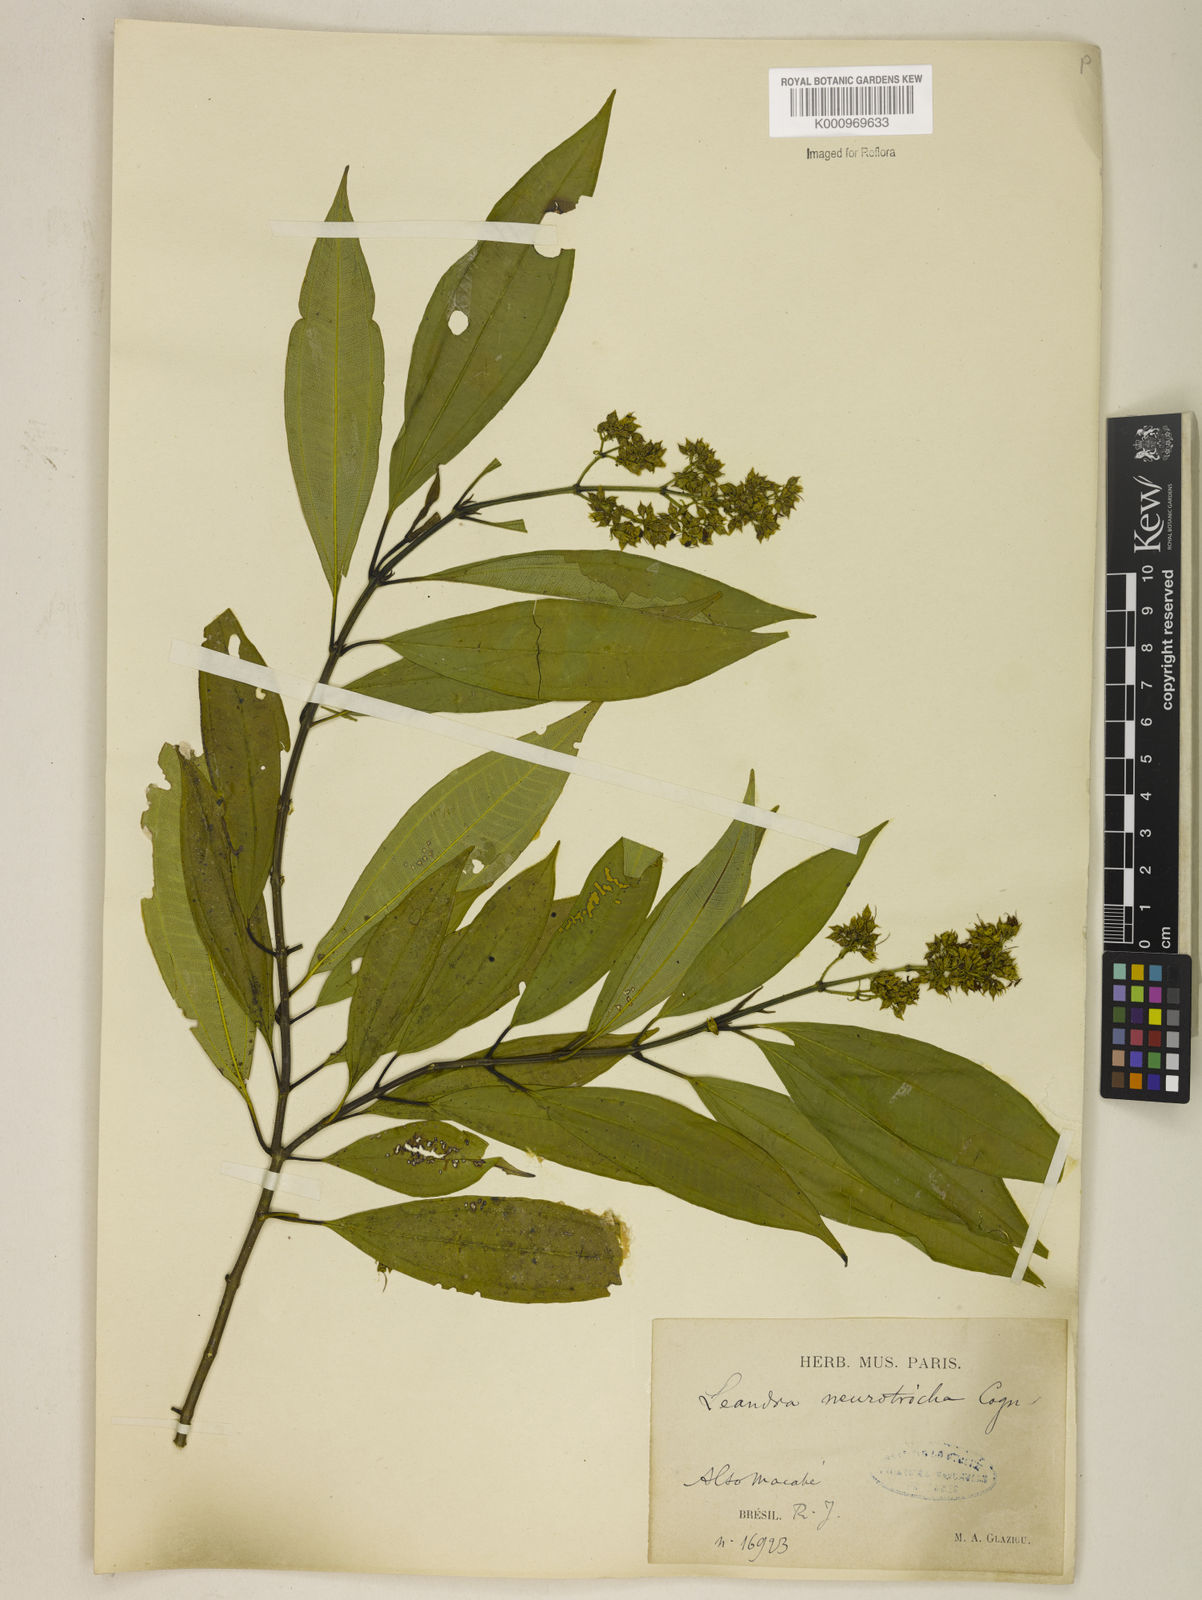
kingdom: Plantae
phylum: Tracheophyta
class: Magnoliopsida
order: Myrtales
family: Melastomataceae
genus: Miconia
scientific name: Miconia leaneurotricha
